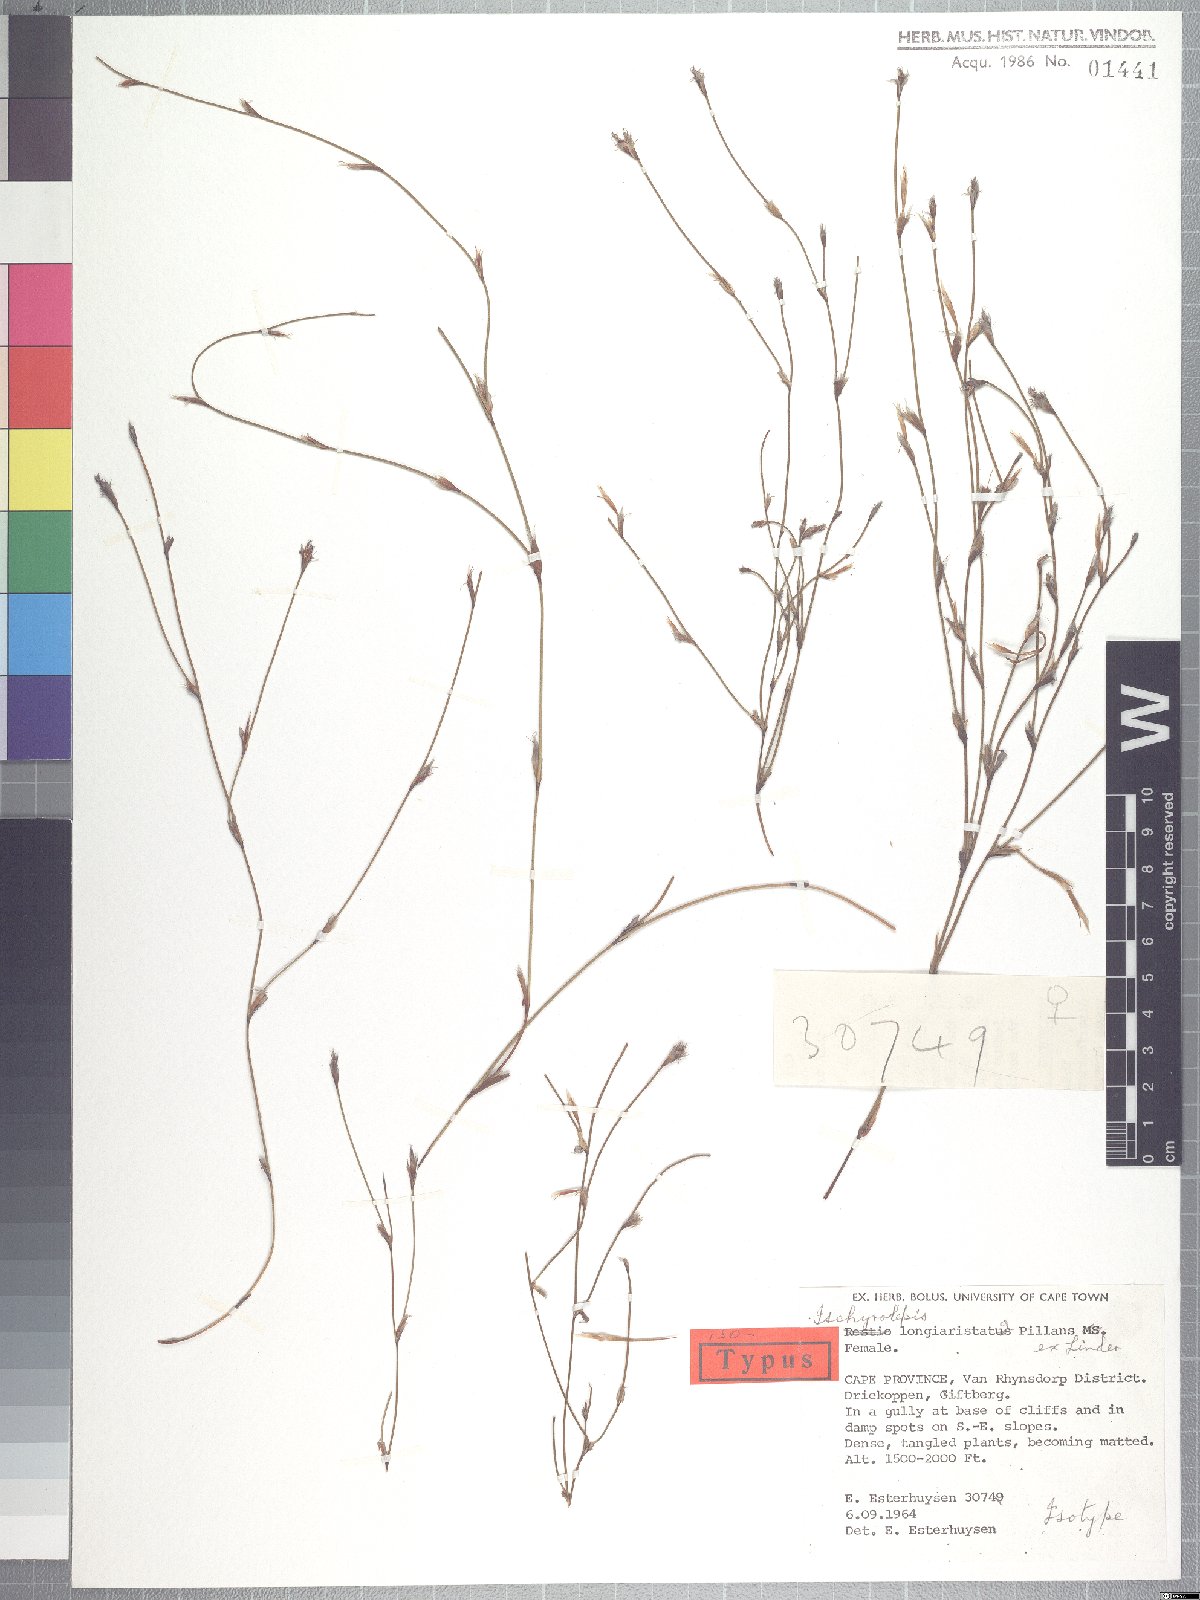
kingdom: Plantae
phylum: Tracheophyta
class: Liliopsida
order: Poales
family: Restionaceae
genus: Restio
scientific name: Restio longiaristatus
